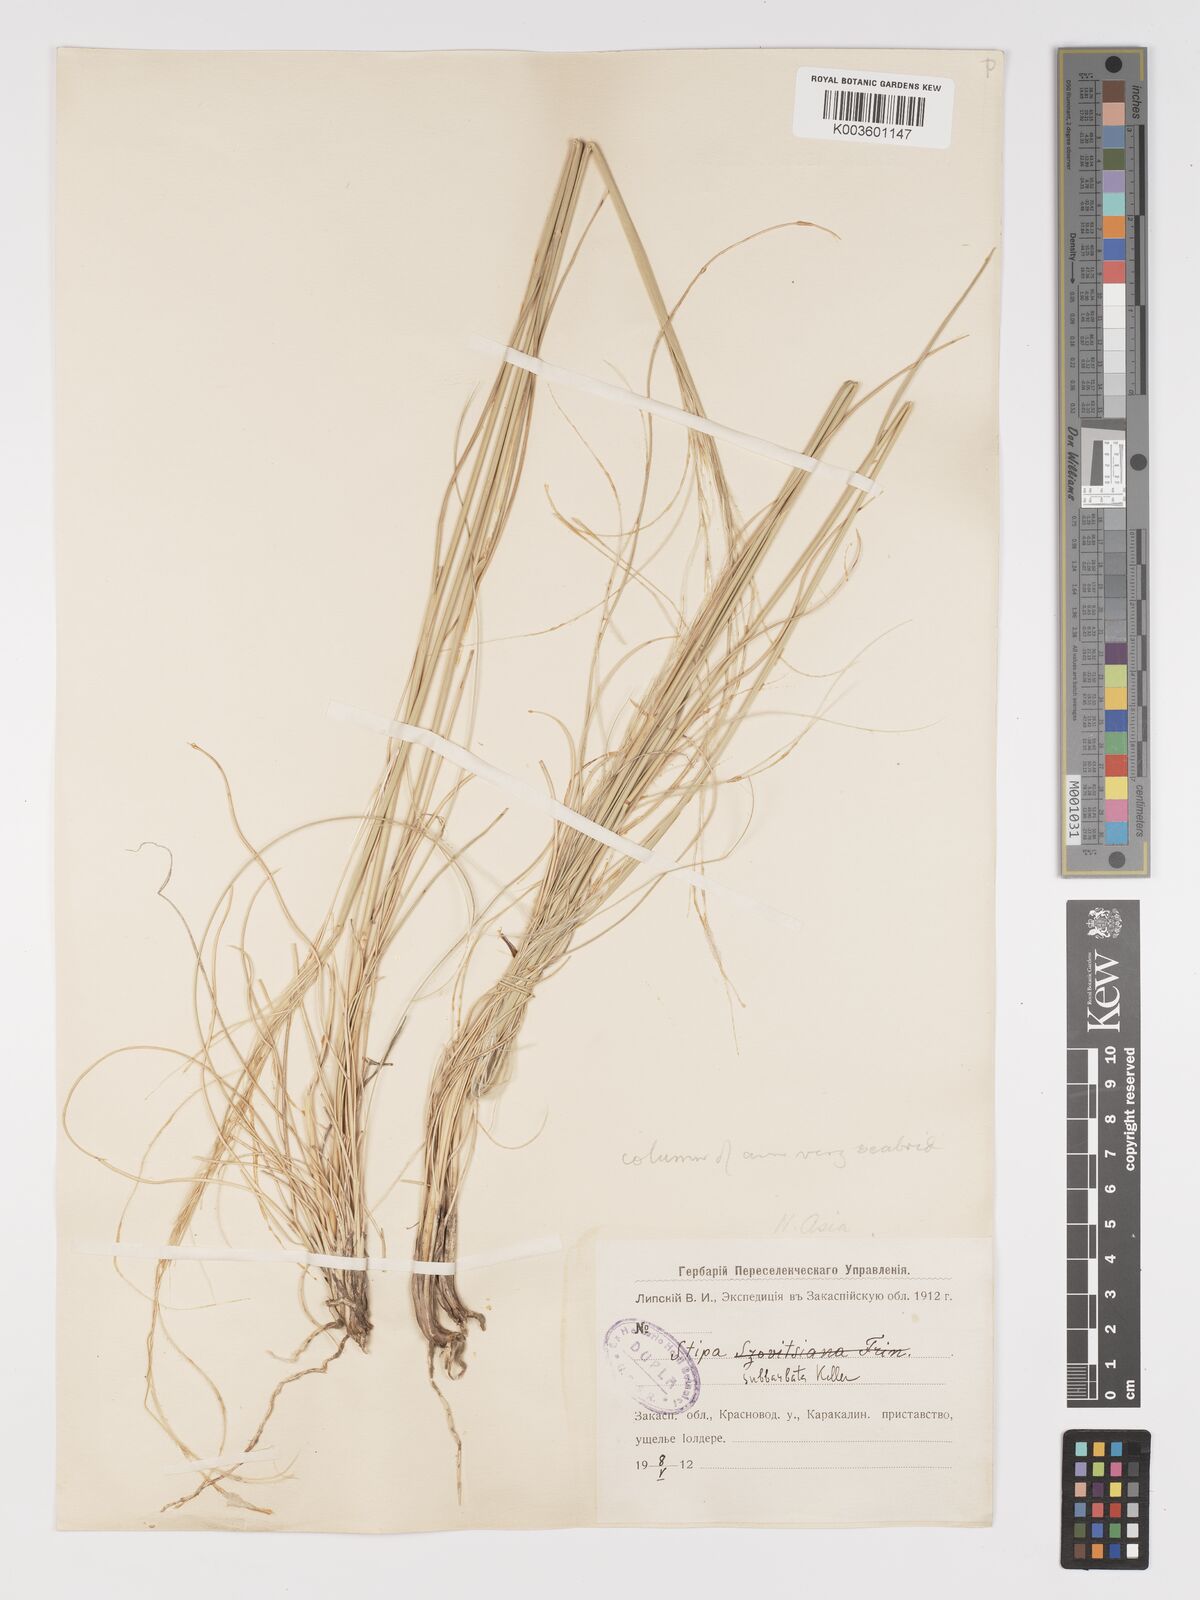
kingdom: Plantae
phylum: Tracheophyta
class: Liliopsida
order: Poales
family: Poaceae
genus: Stipa
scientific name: Stipa hohenackeriana
